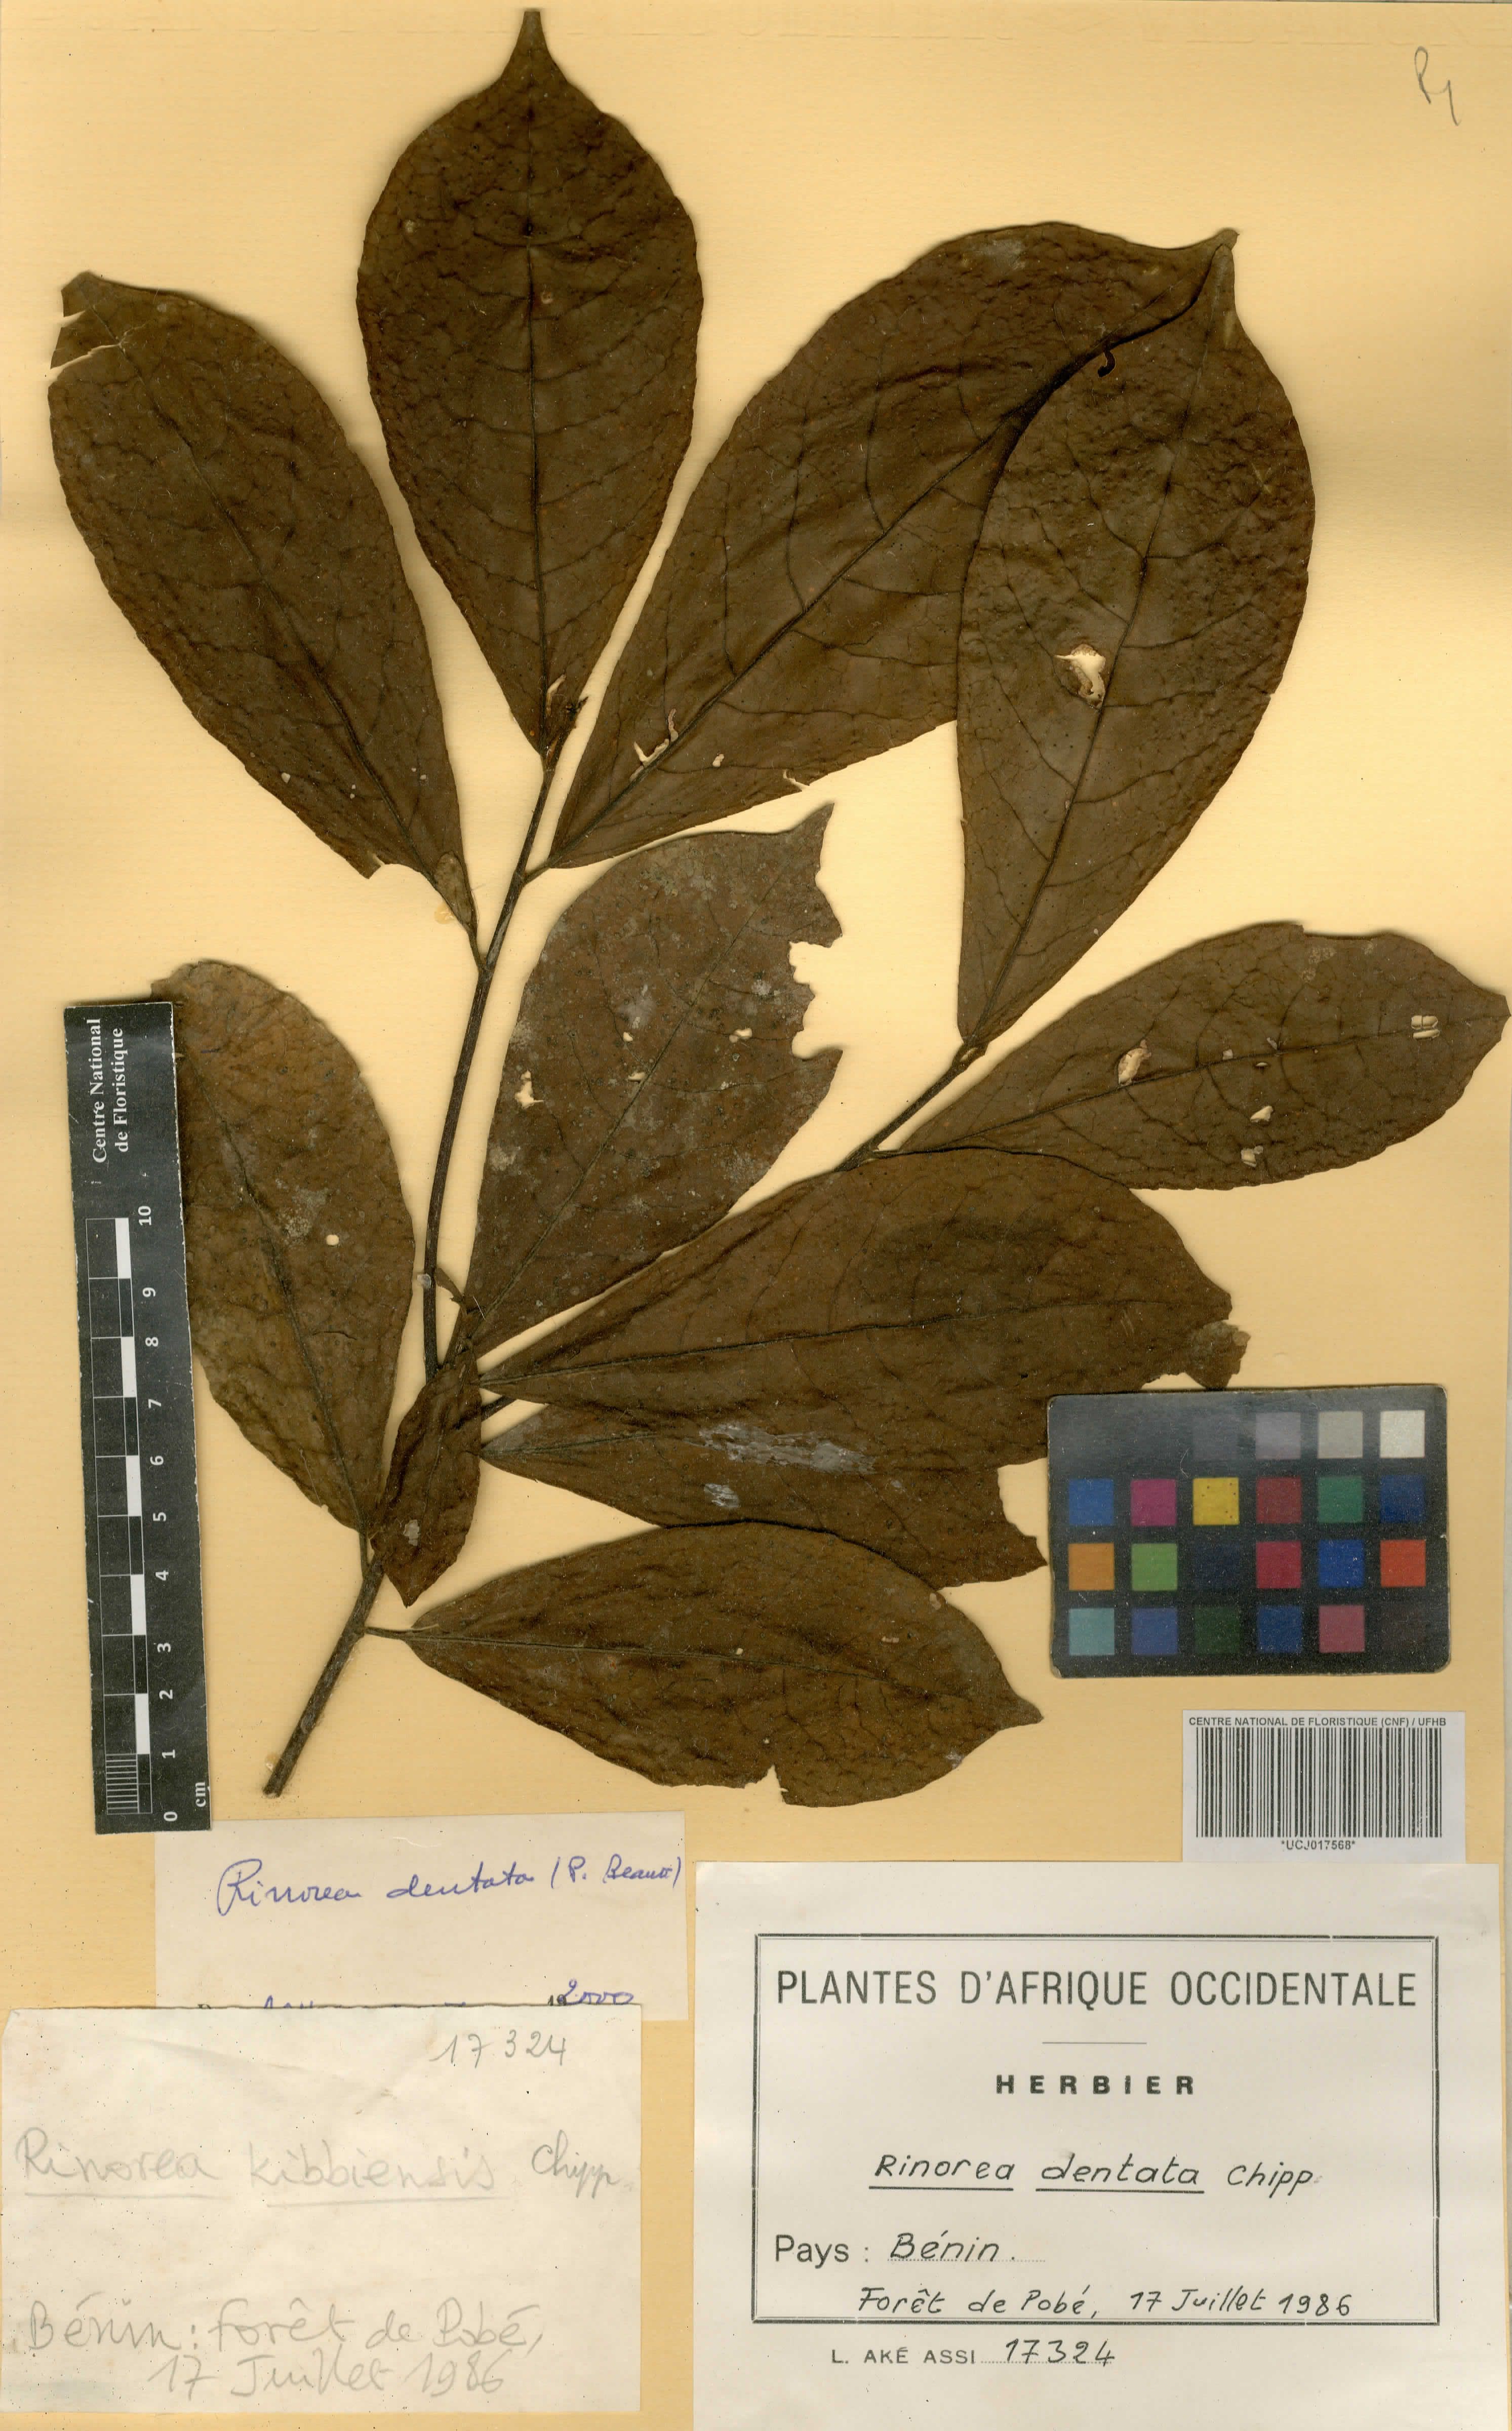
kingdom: Plantae
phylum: Tracheophyta
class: Magnoliopsida
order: Malpighiales
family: Violaceae
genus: Rinorea
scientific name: Rinorea dentata
